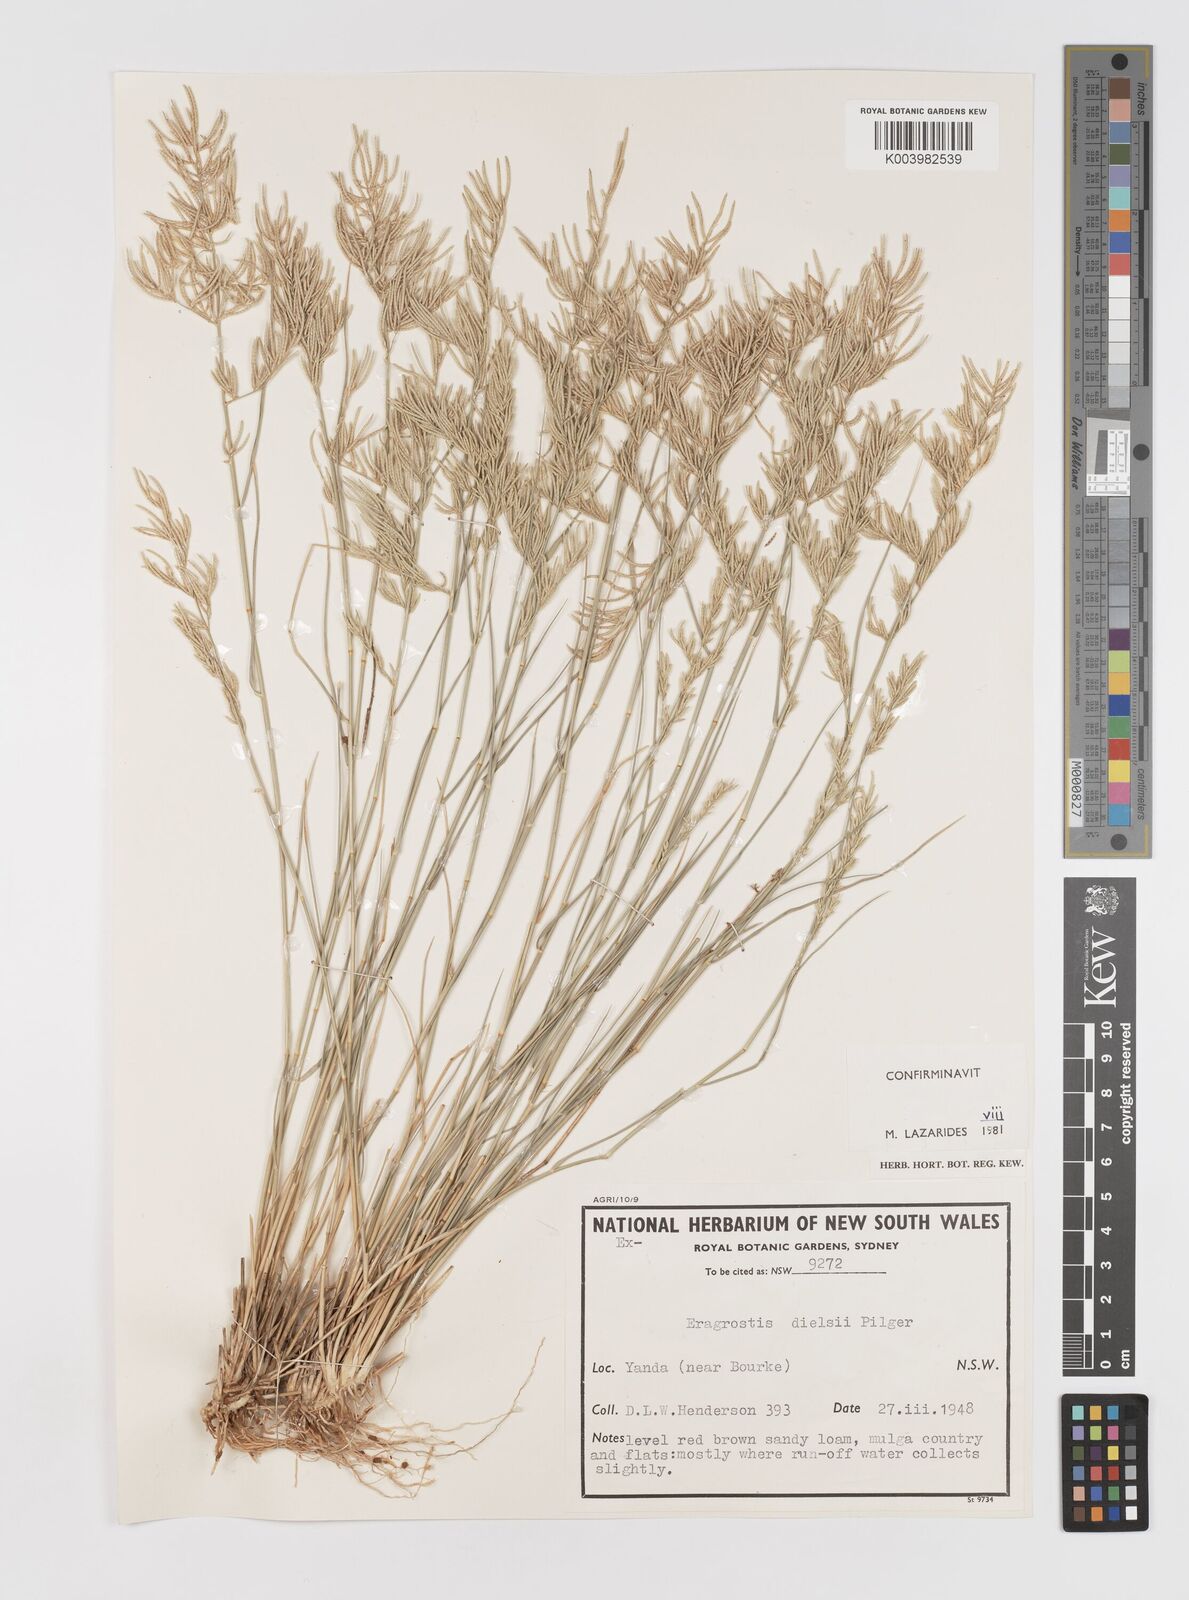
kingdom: Plantae
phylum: Tracheophyta
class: Liliopsida
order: Poales
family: Poaceae
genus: Eragrostis
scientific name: Eragrostis dielsii
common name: Lovegrass
